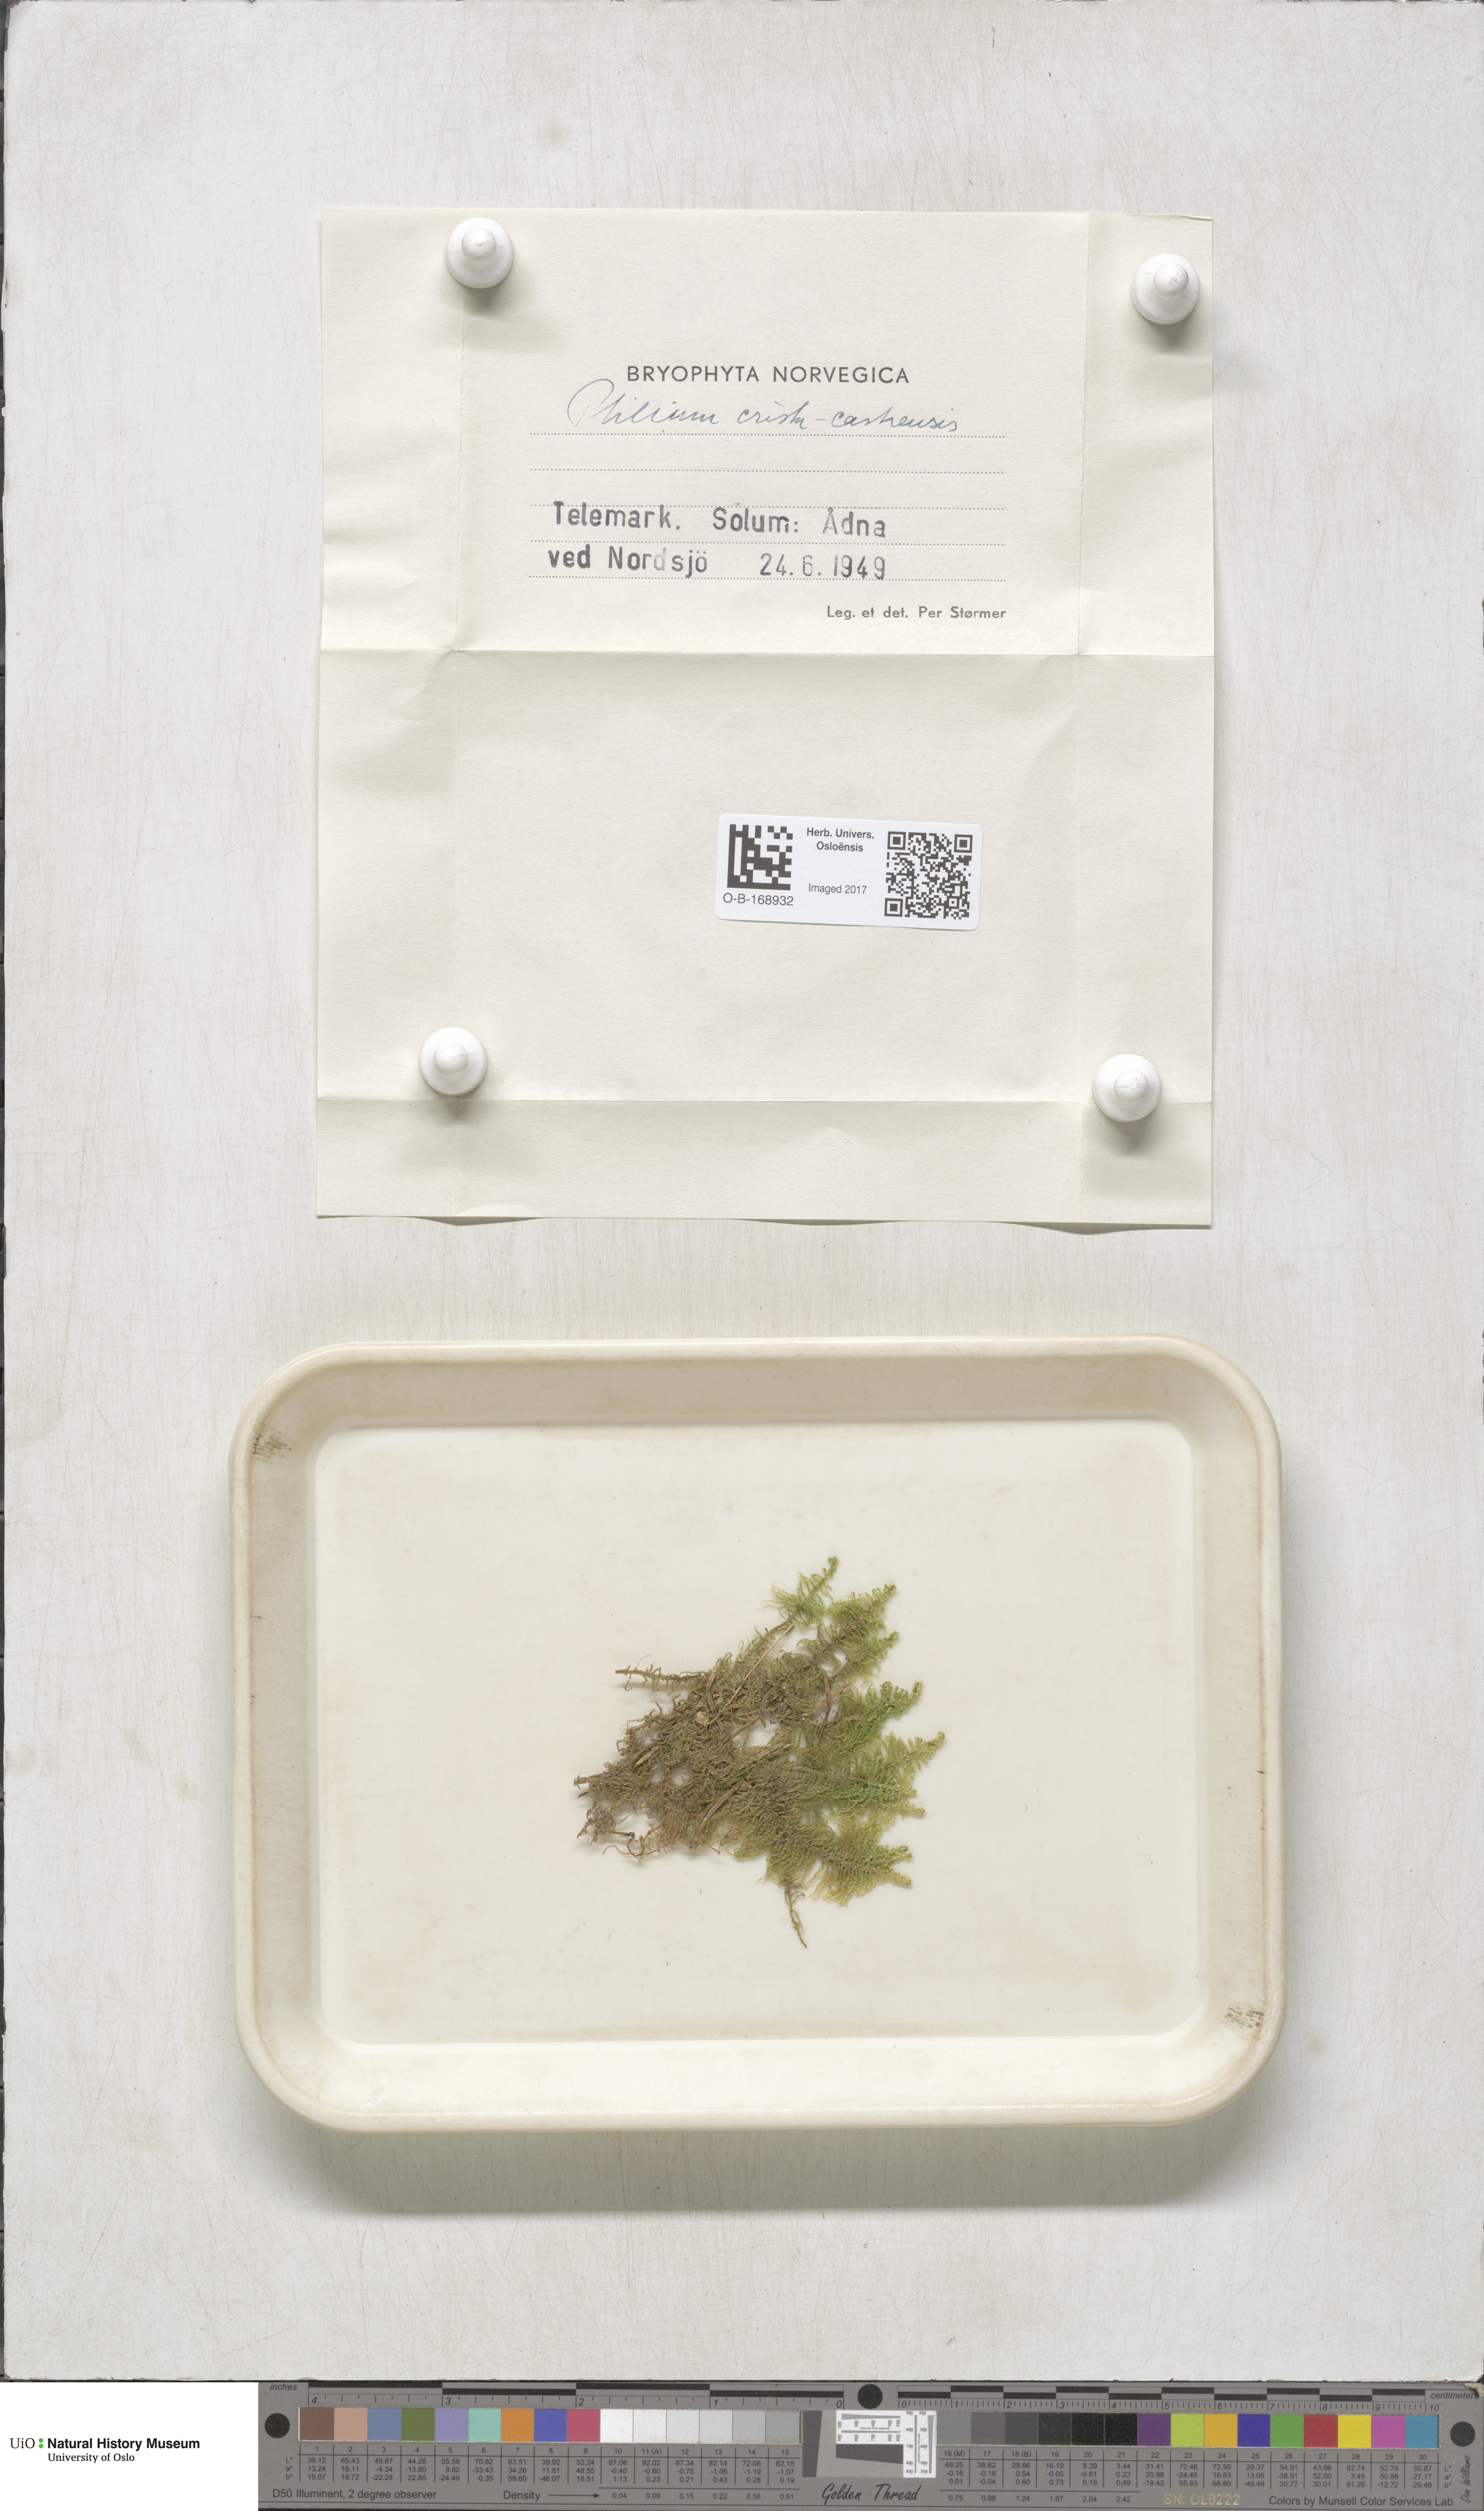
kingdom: Plantae
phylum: Bryophyta
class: Bryopsida
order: Hypnales
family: Pylaisiaceae
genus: Ptilium
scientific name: Ptilium crista-castrensis
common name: Knight's plume moss
